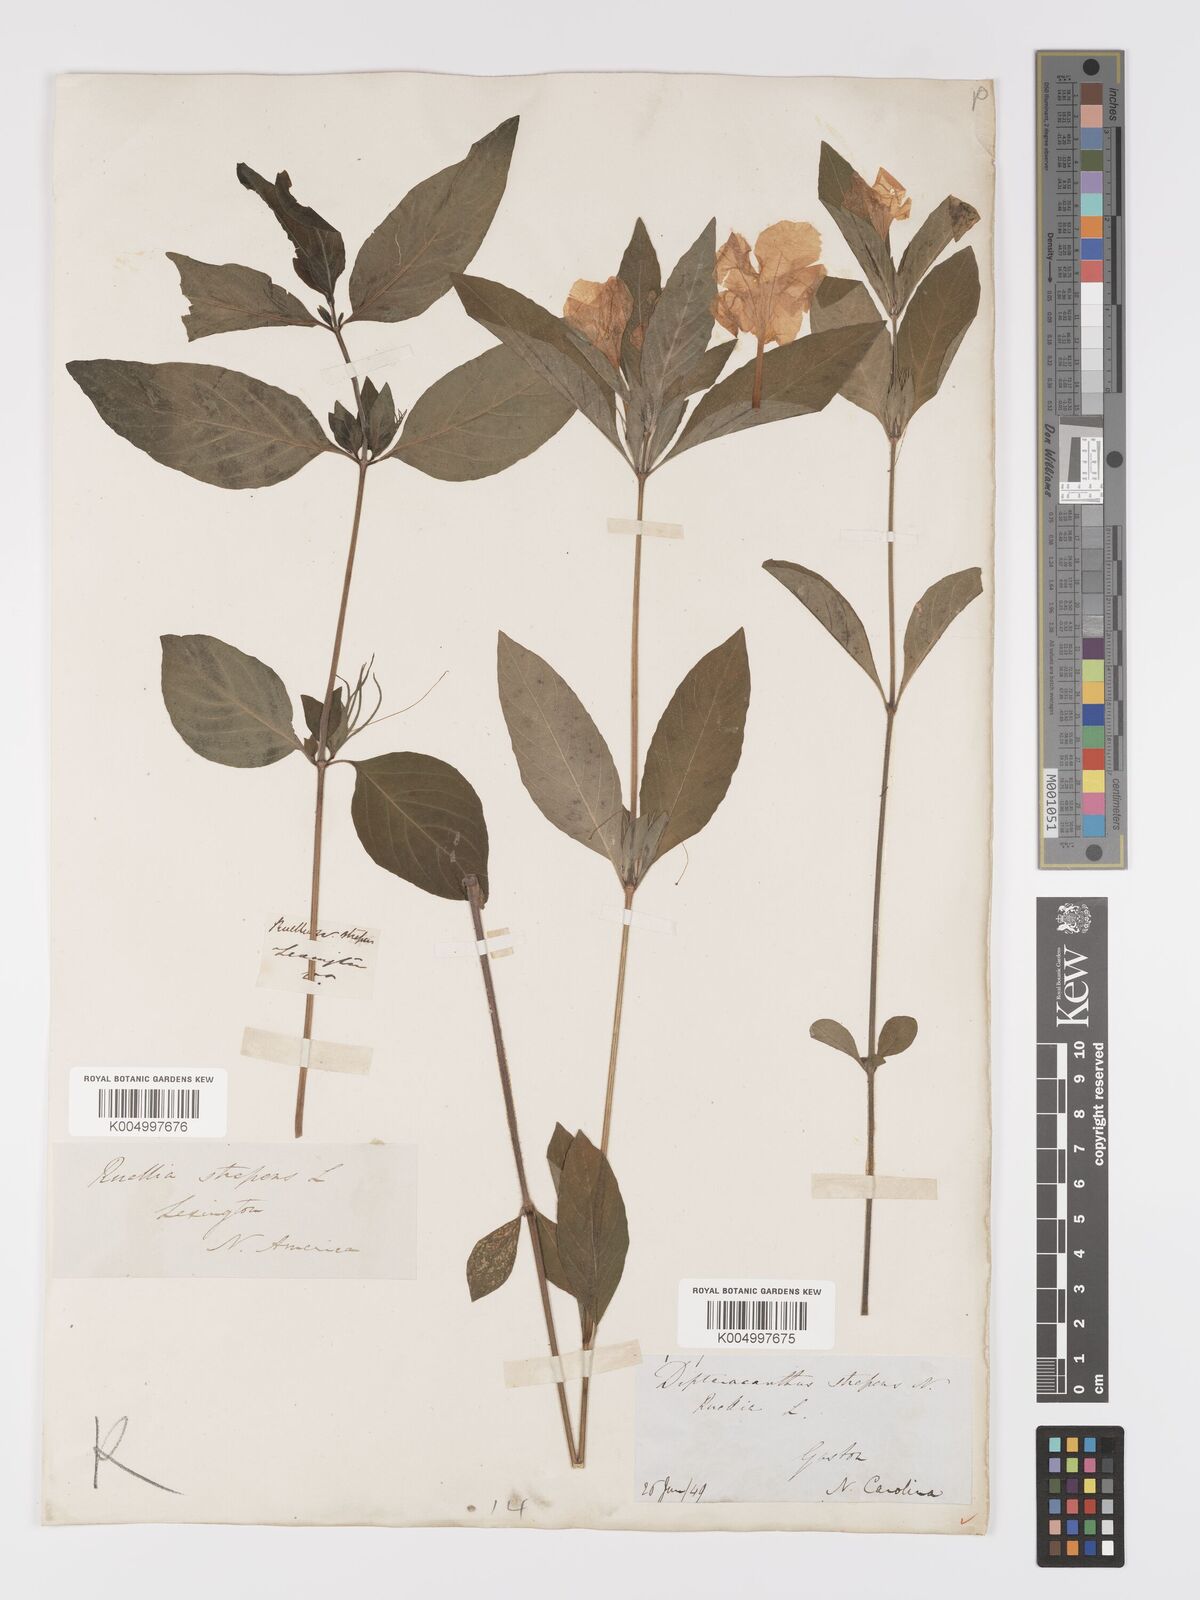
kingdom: Plantae
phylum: Tracheophyta
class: Magnoliopsida
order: Lamiales
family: Acanthaceae
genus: Ruellia
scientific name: Ruellia strepens
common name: Limestone wild petunia
